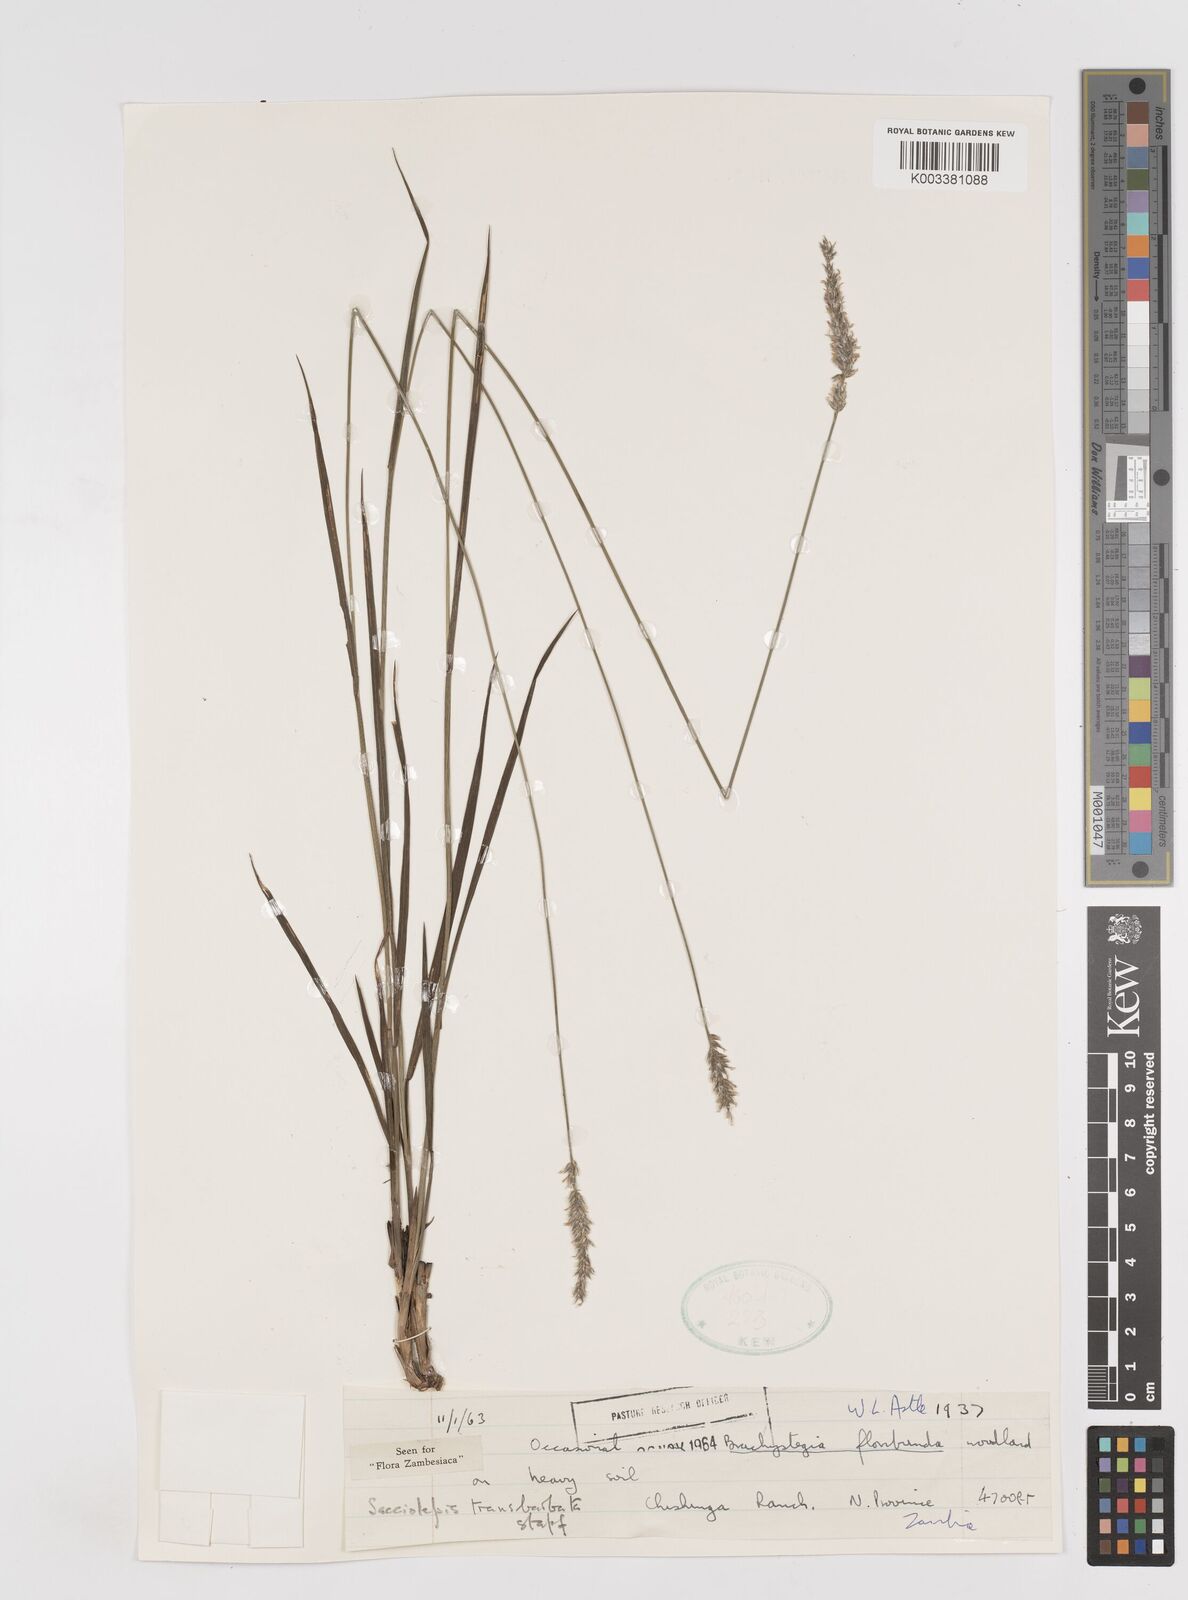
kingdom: Plantae
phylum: Tracheophyta
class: Liliopsida
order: Poales
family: Poaceae
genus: Sacciolepis
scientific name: Sacciolepis transbarbata
